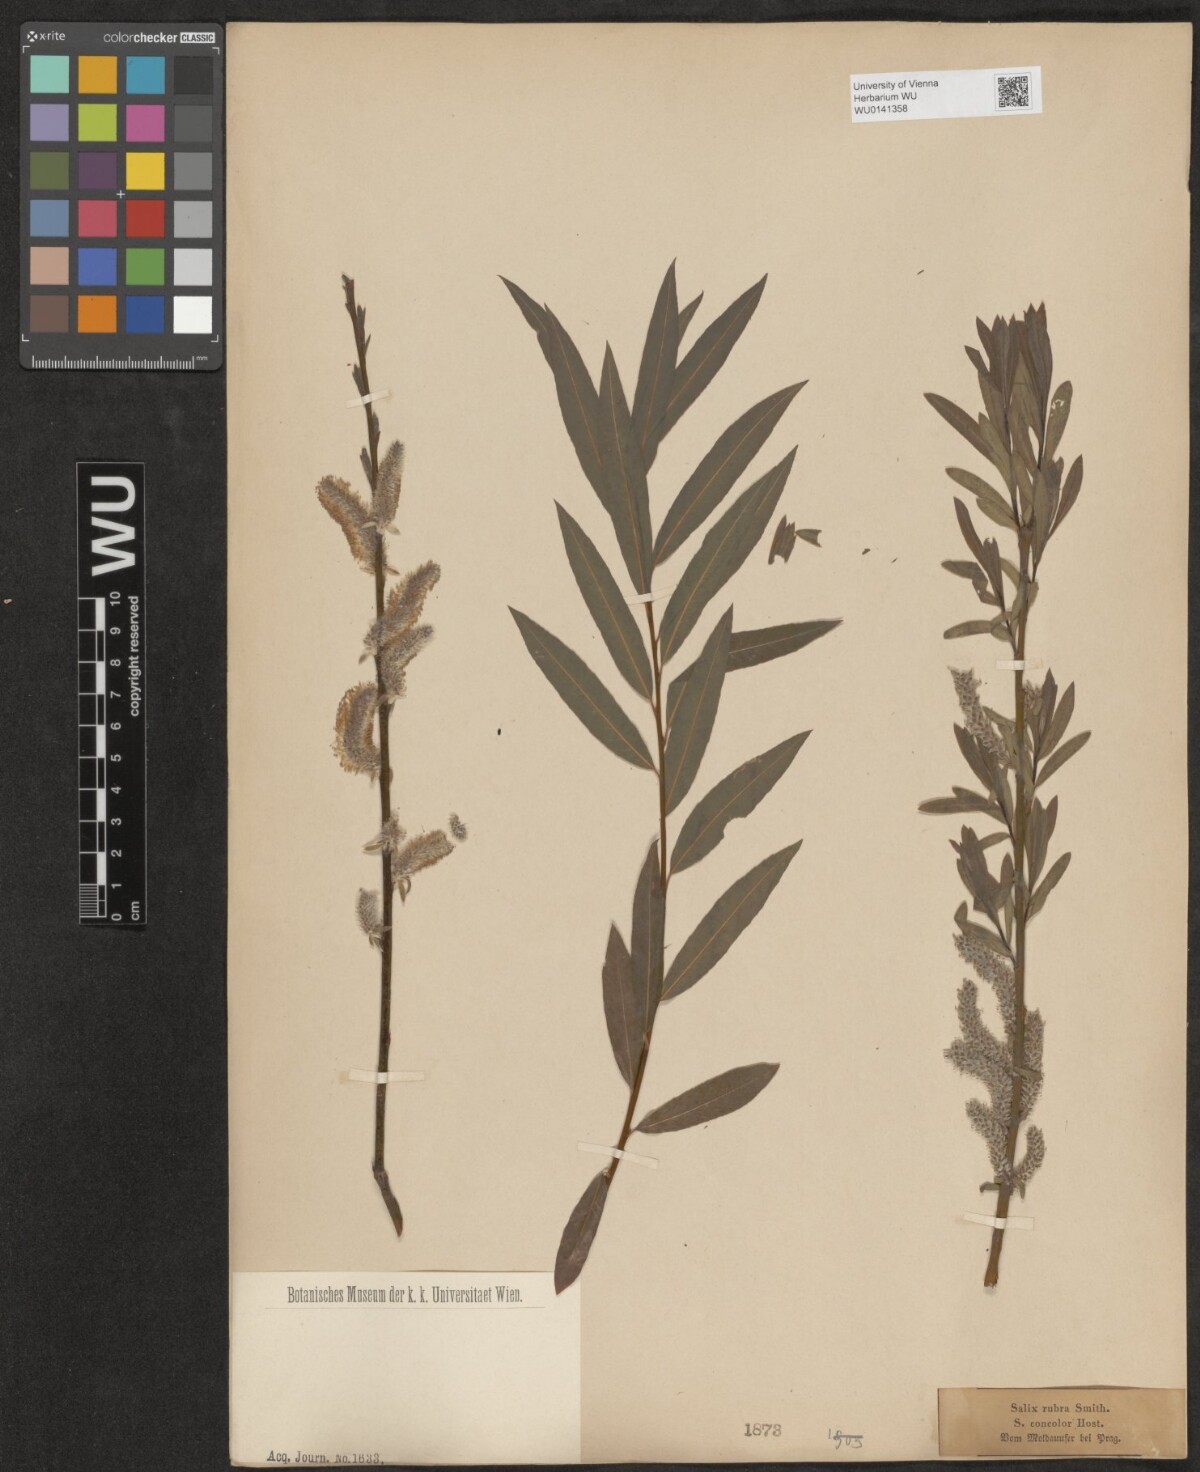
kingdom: Plantae
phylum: Tracheophyta
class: Magnoliopsida
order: Malpighiales
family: Salicaceae
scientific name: Salicaceae
